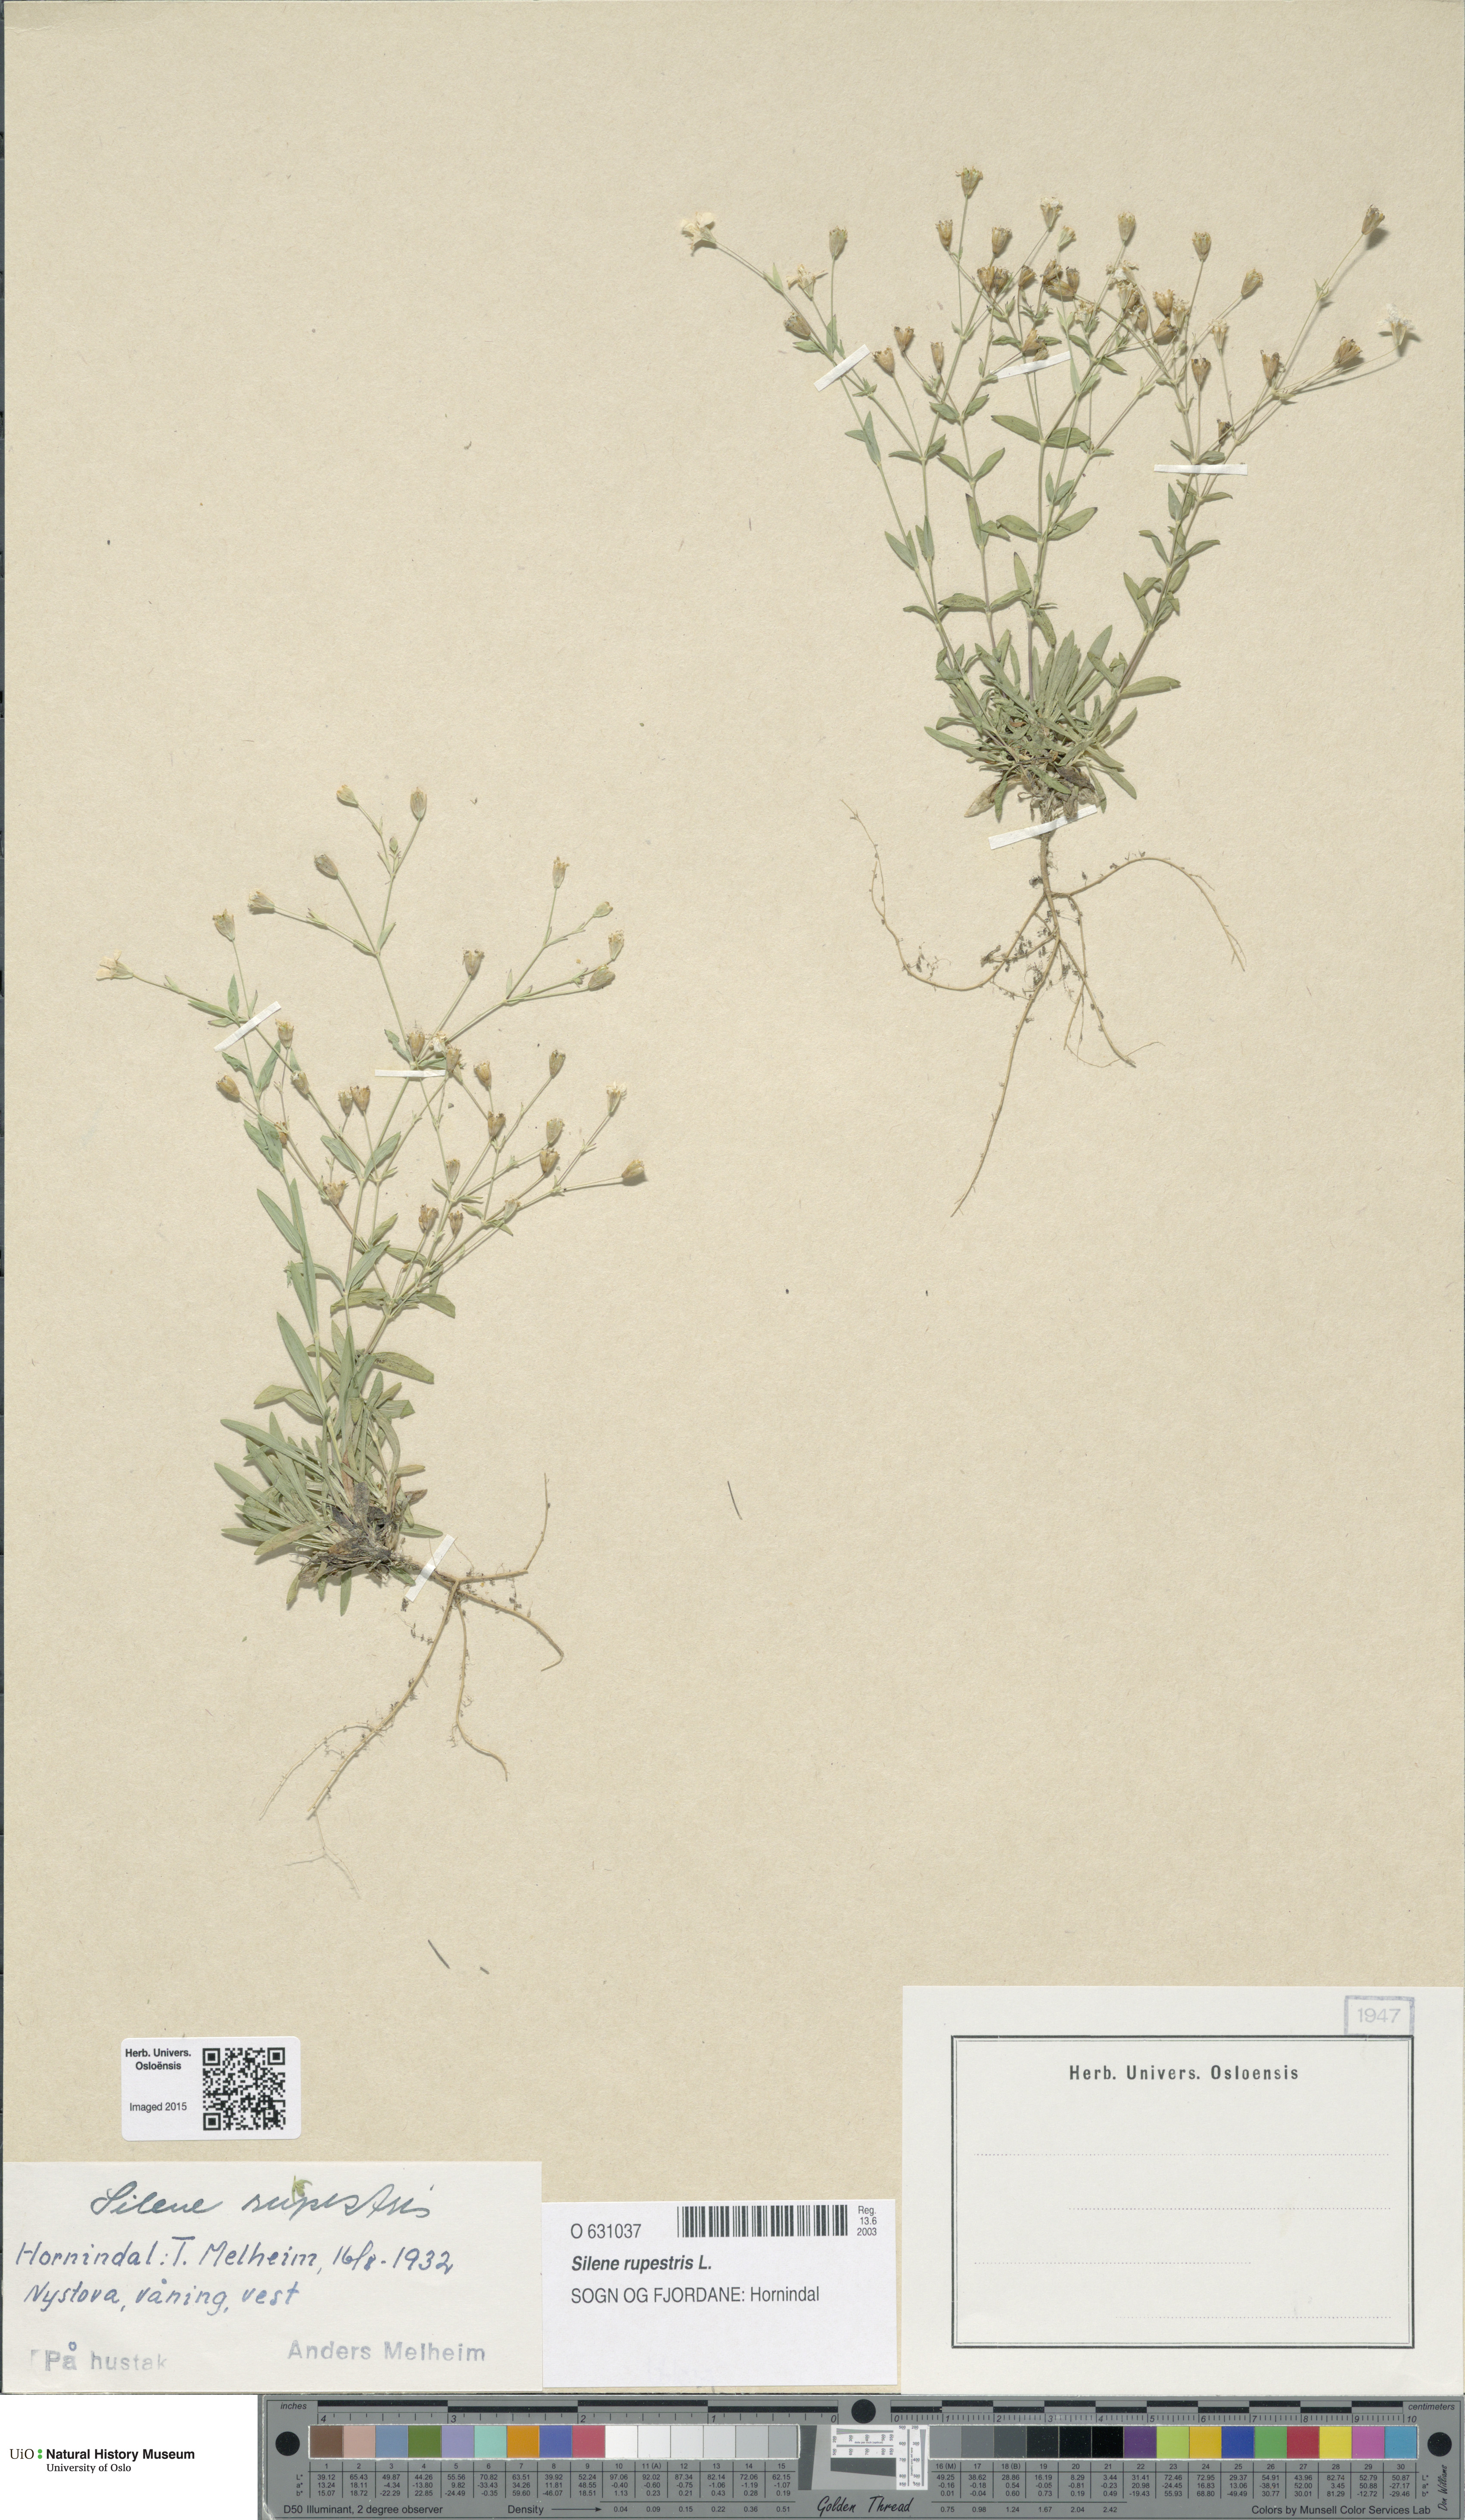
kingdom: Plantae
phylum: Tracheophyta
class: Magnoliopsida
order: Caryophyllales
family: Caryophyllaceae
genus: Atocion
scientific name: Atocion rupestre
